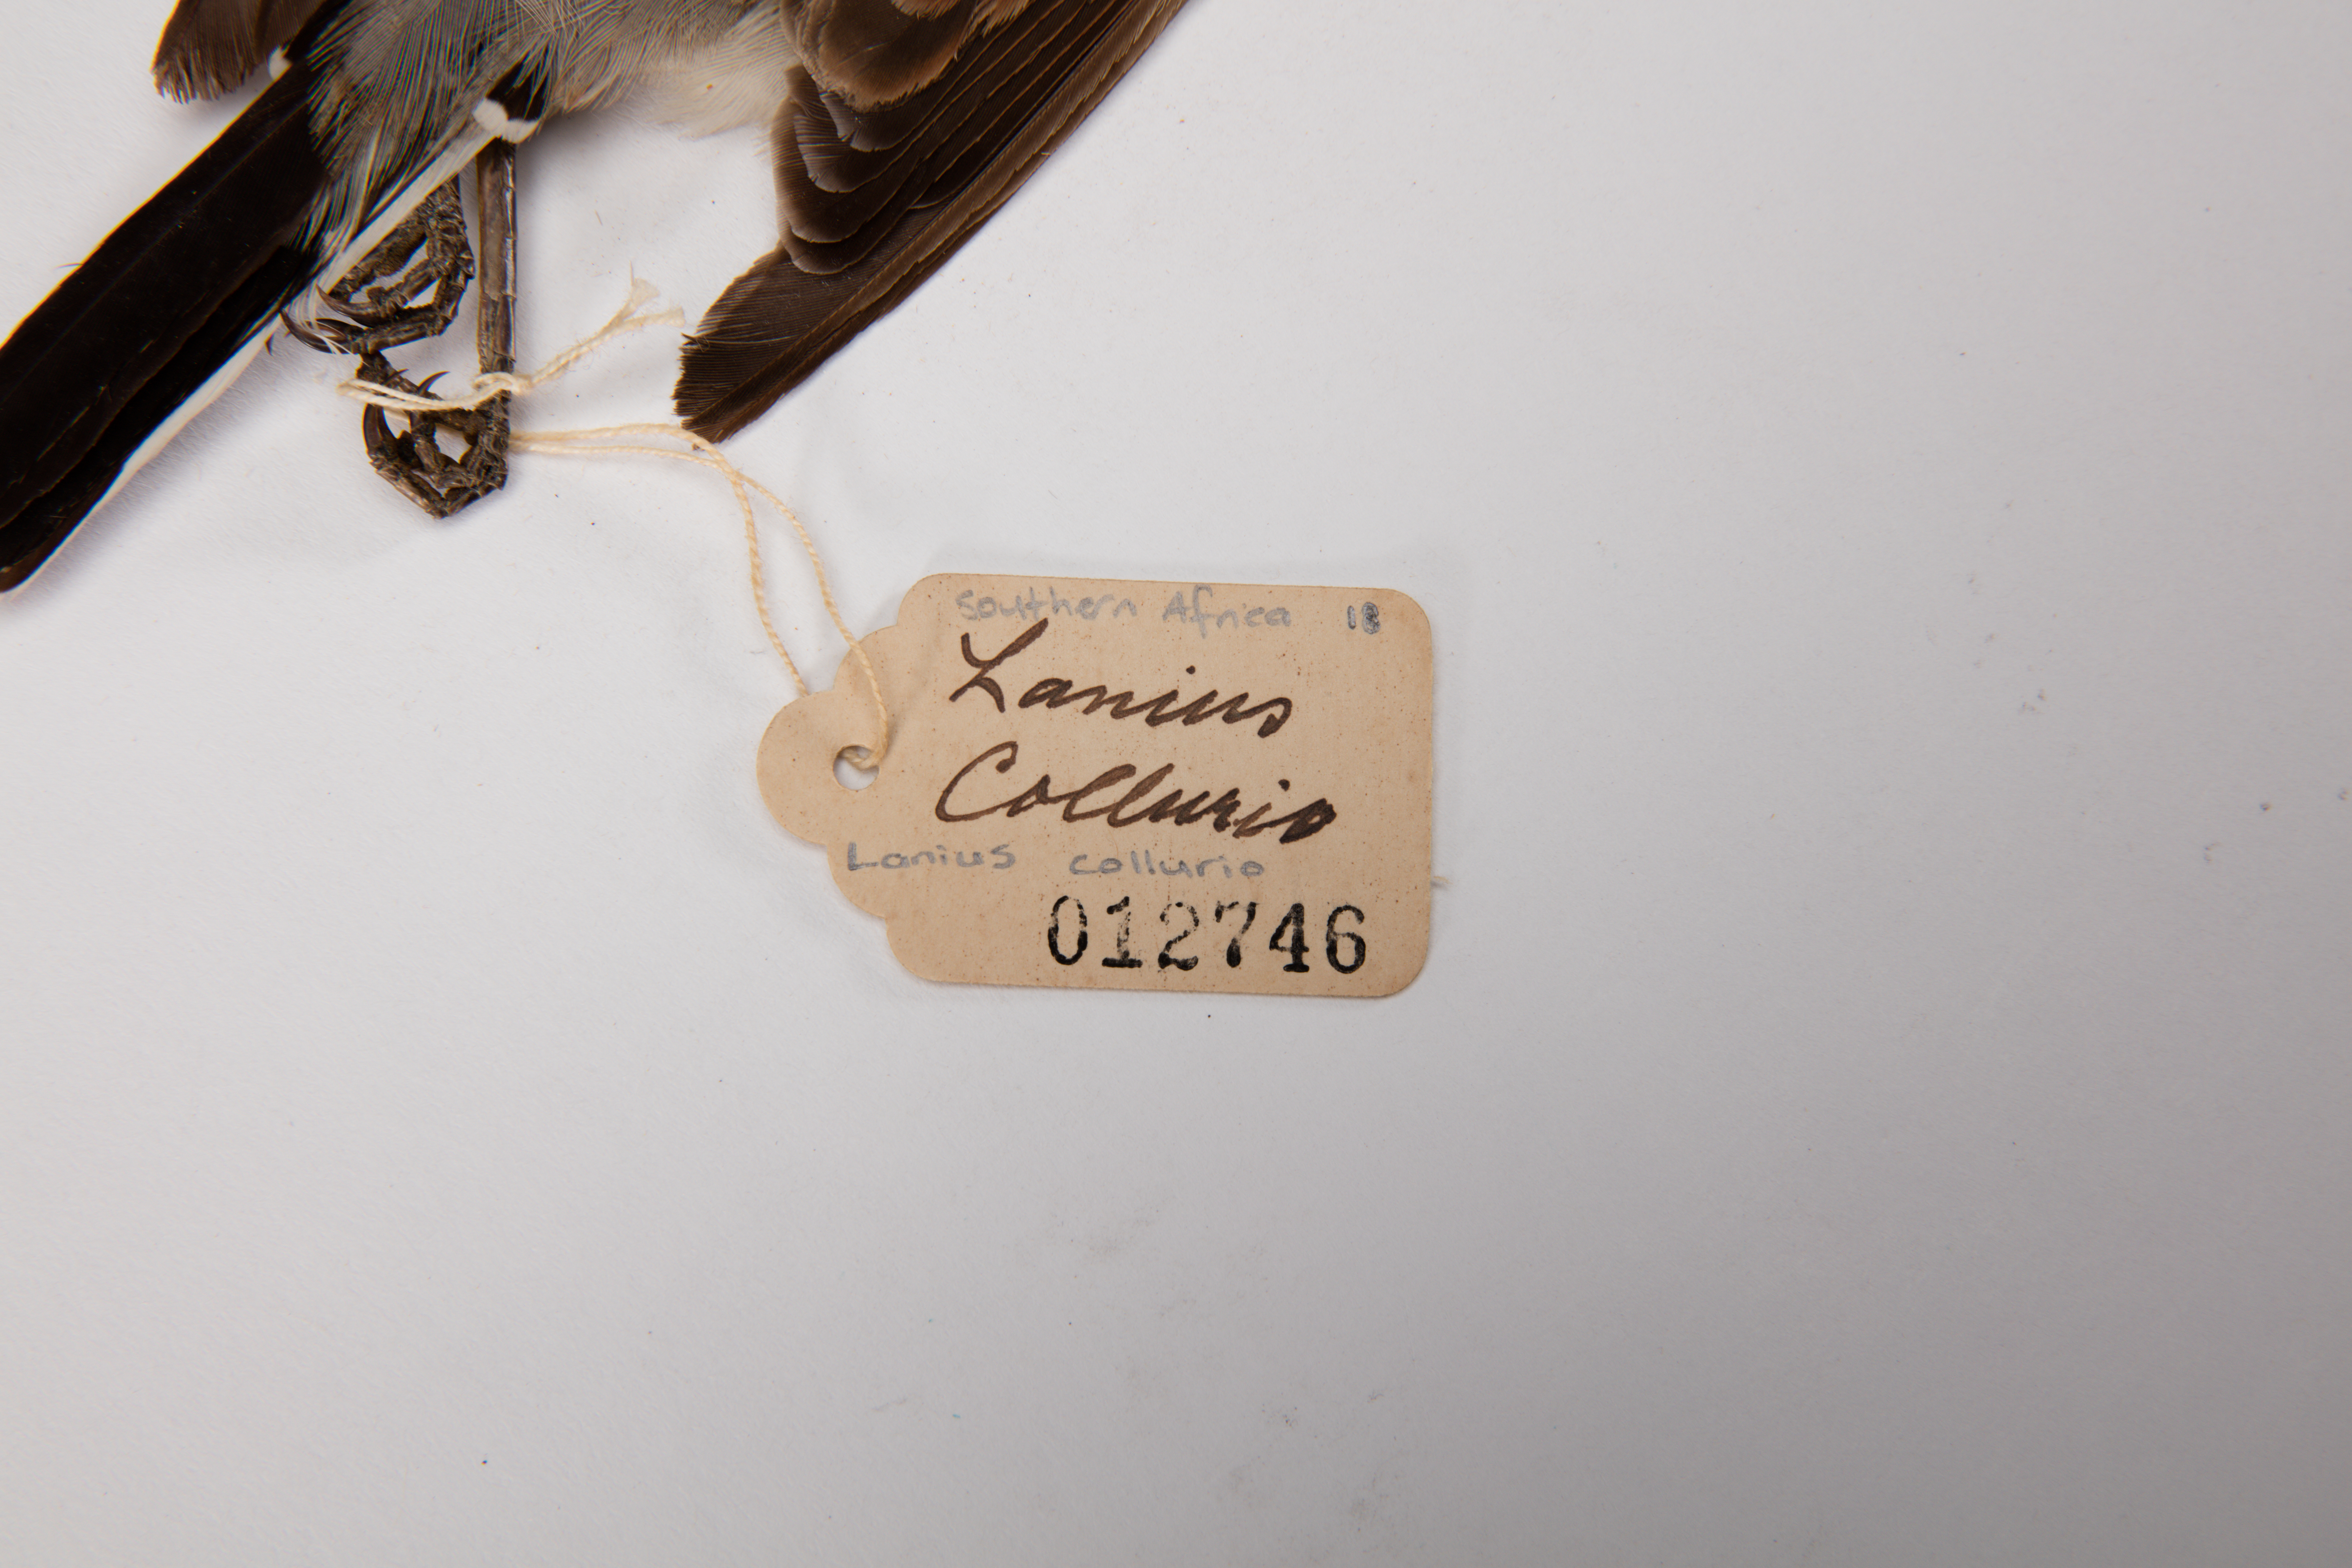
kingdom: Animalia
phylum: Chordata
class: Aves
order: Passeriformes
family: Laniidae
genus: Lanius
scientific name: Lanius collurio
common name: Red-backed shrike
